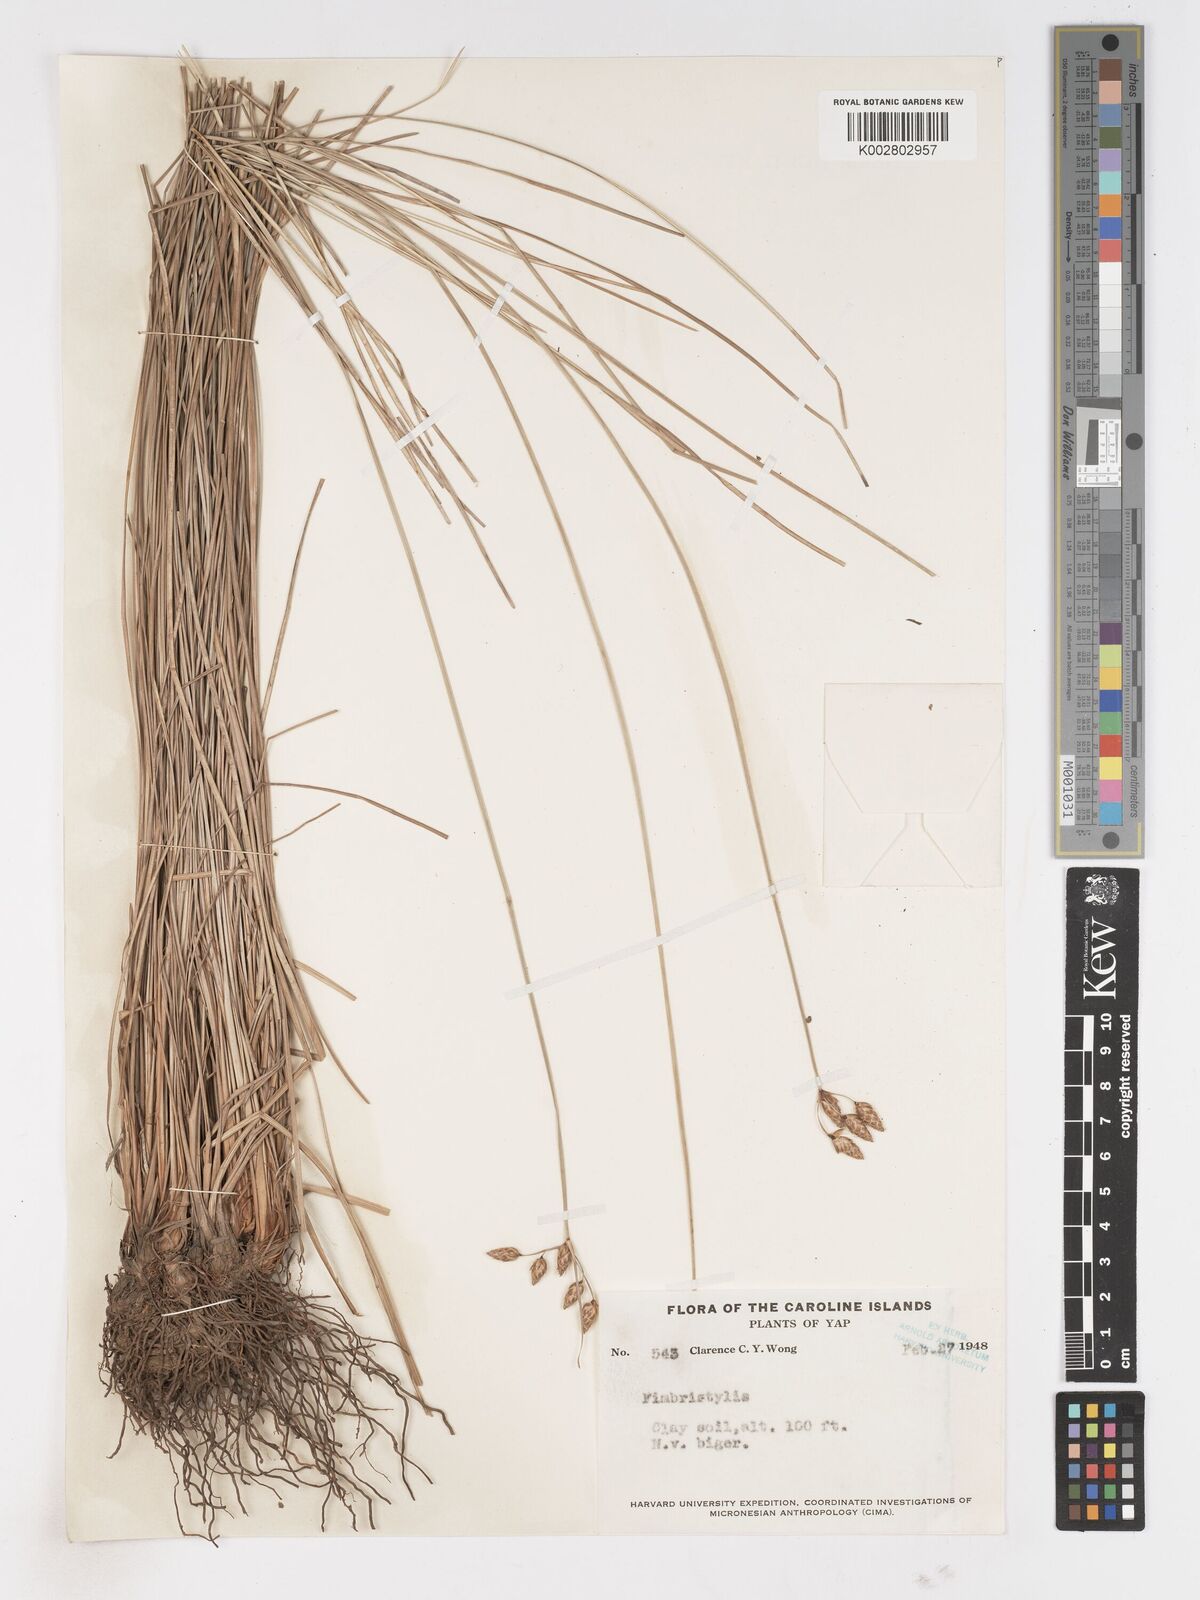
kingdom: Plantae
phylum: Tracheophyta
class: Liliopsida
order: Poales
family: Cyperaceae
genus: Fimbristylis
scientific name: Fimbristylis schoenoides
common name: Ditch fimbry
